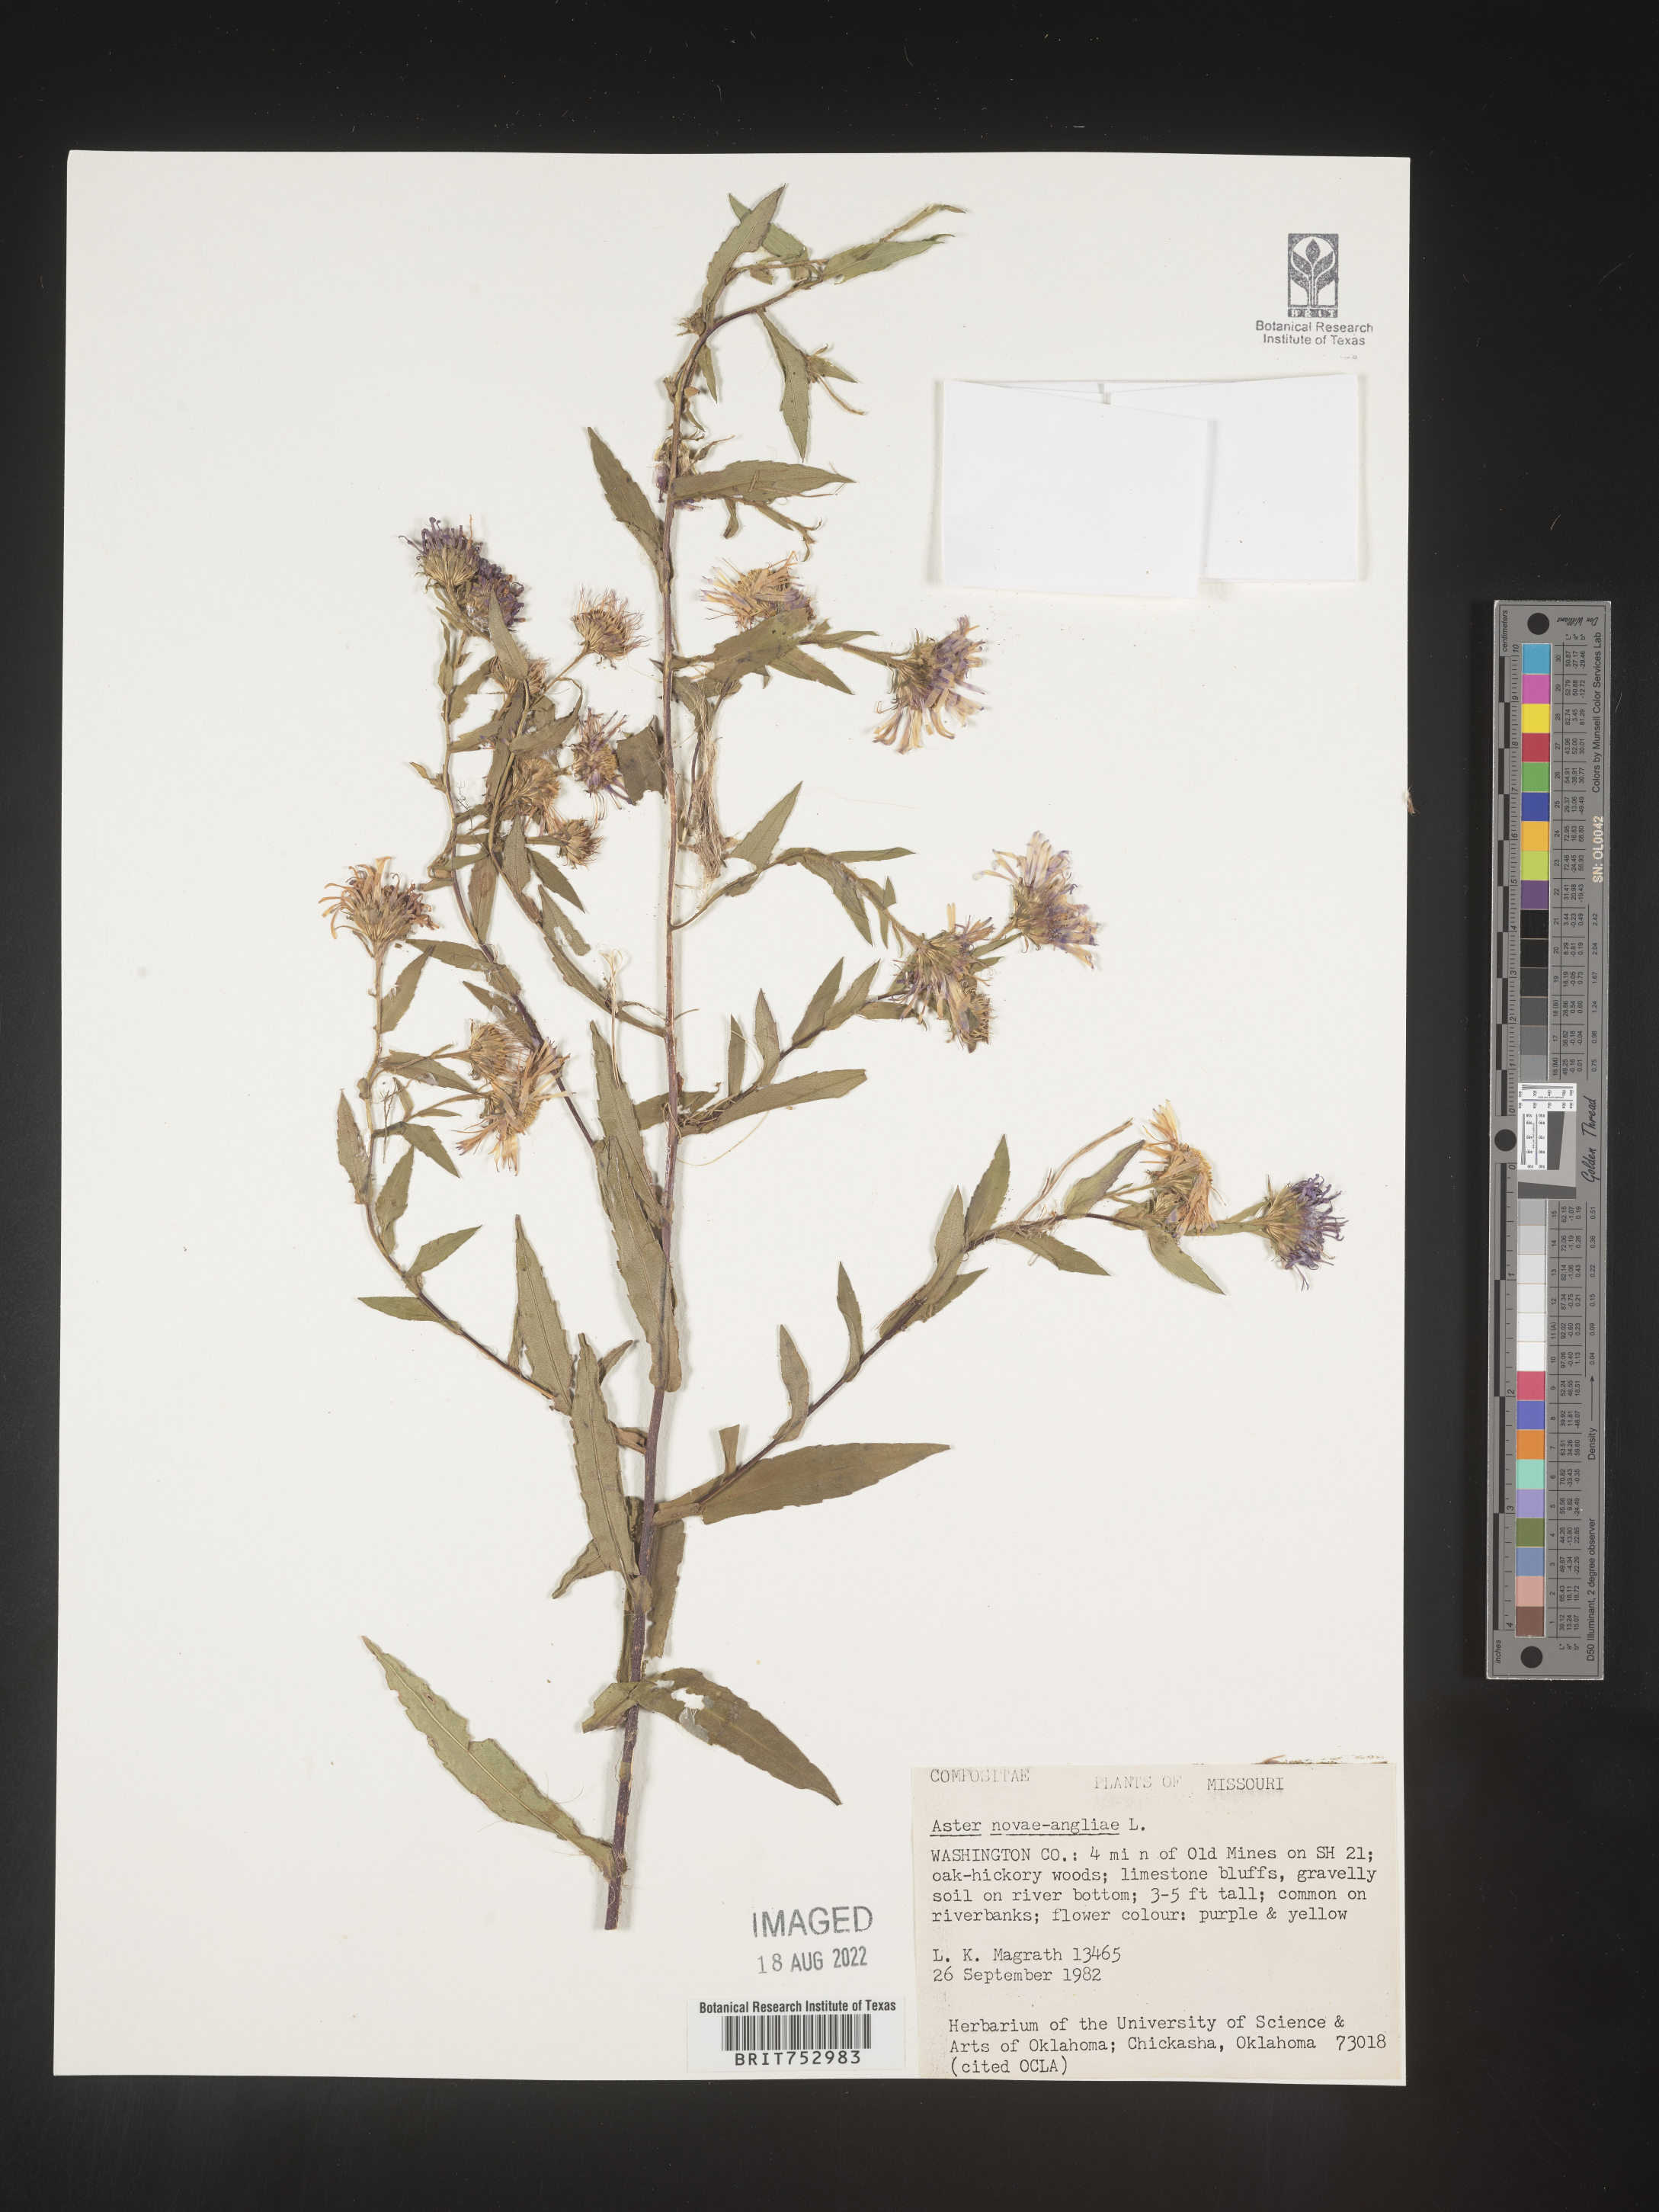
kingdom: Plantae
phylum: Tracheophyta
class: Magnoliopsida
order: Asterales
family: Asteraceae
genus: Symphyotrichum
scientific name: Symphyotrichum novae-angliae
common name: Michaelmas daisy
